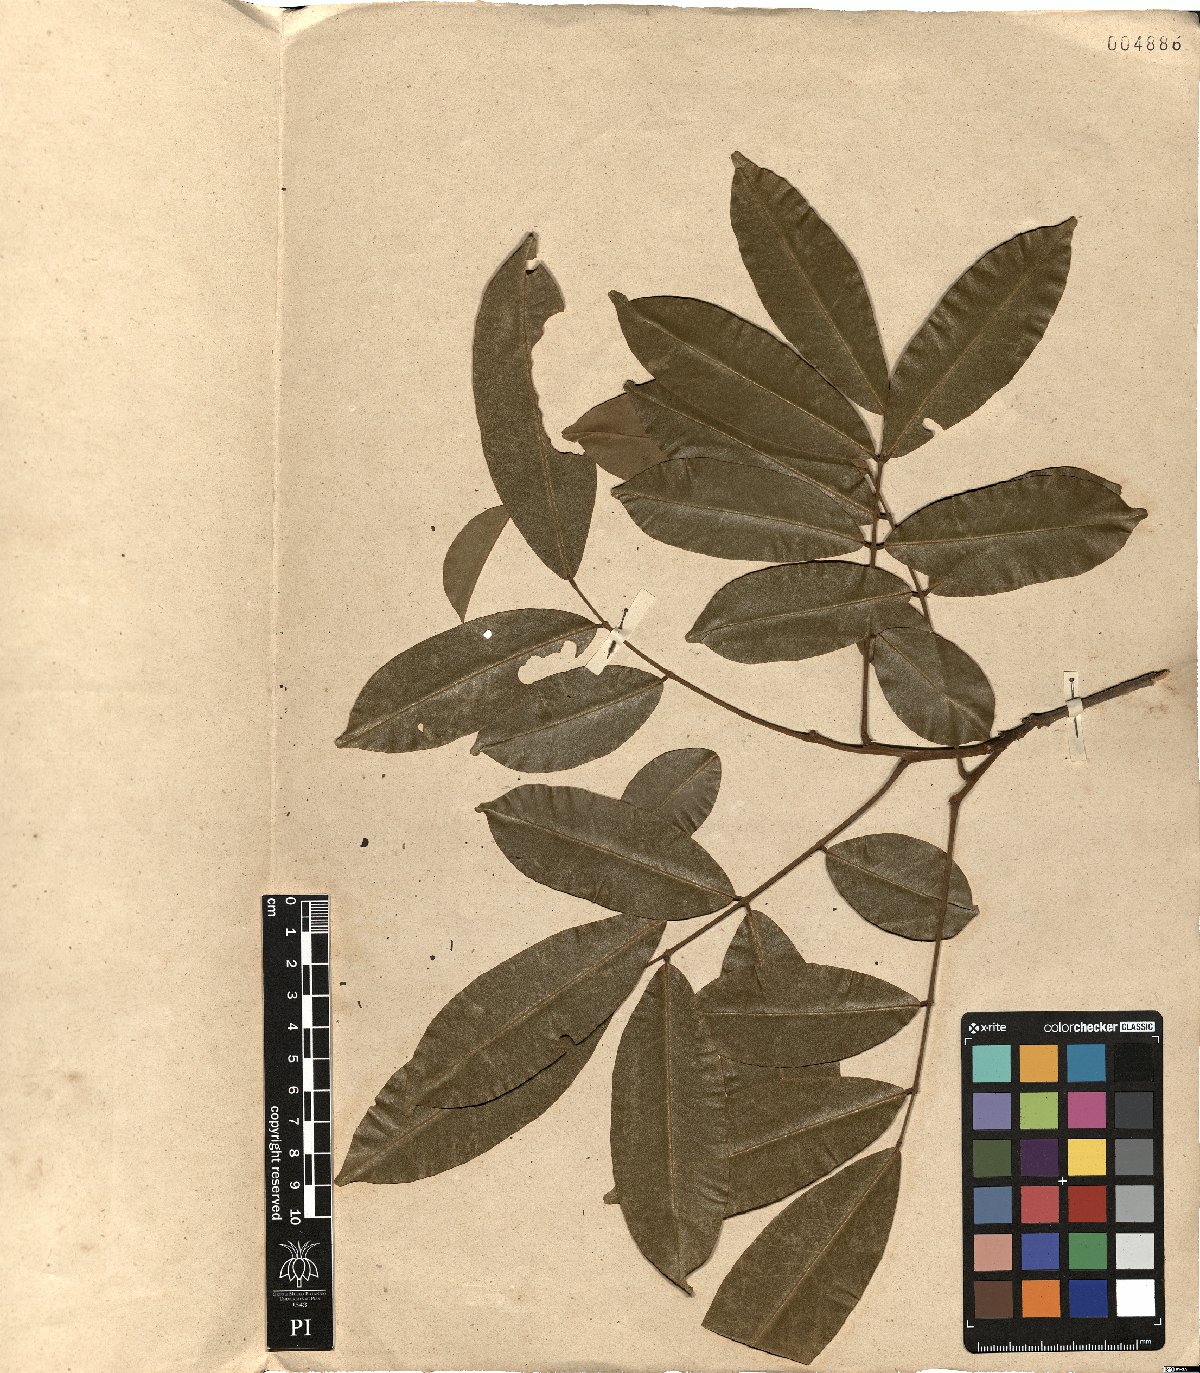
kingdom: Plantae
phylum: Tracheophyta
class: Magnoliopsida
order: Fabales
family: Fabaceae
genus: Swartzia
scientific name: Swartzia apetala
